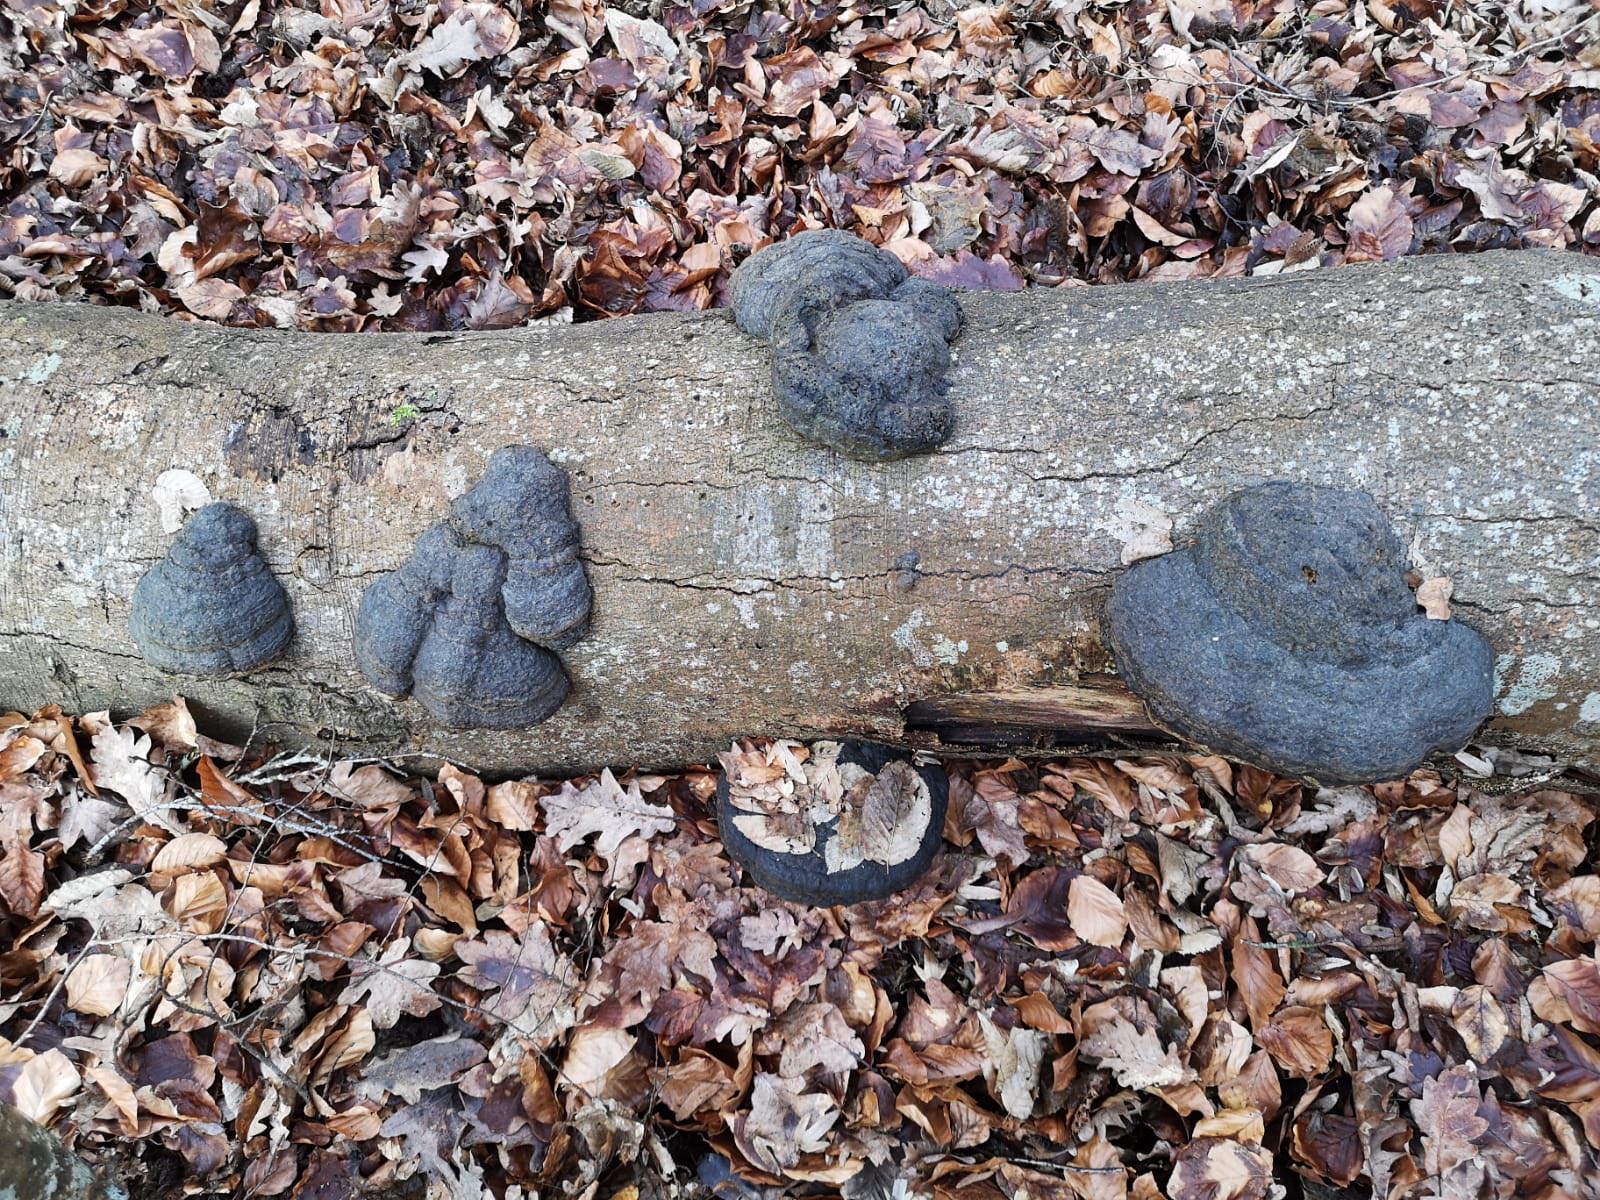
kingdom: Fungi
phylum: Basidiomycota
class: Agaricomycetes
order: Polyporales
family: Polyporaceae
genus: Fomes
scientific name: Fomes fomentarius
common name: tøndersvamp
